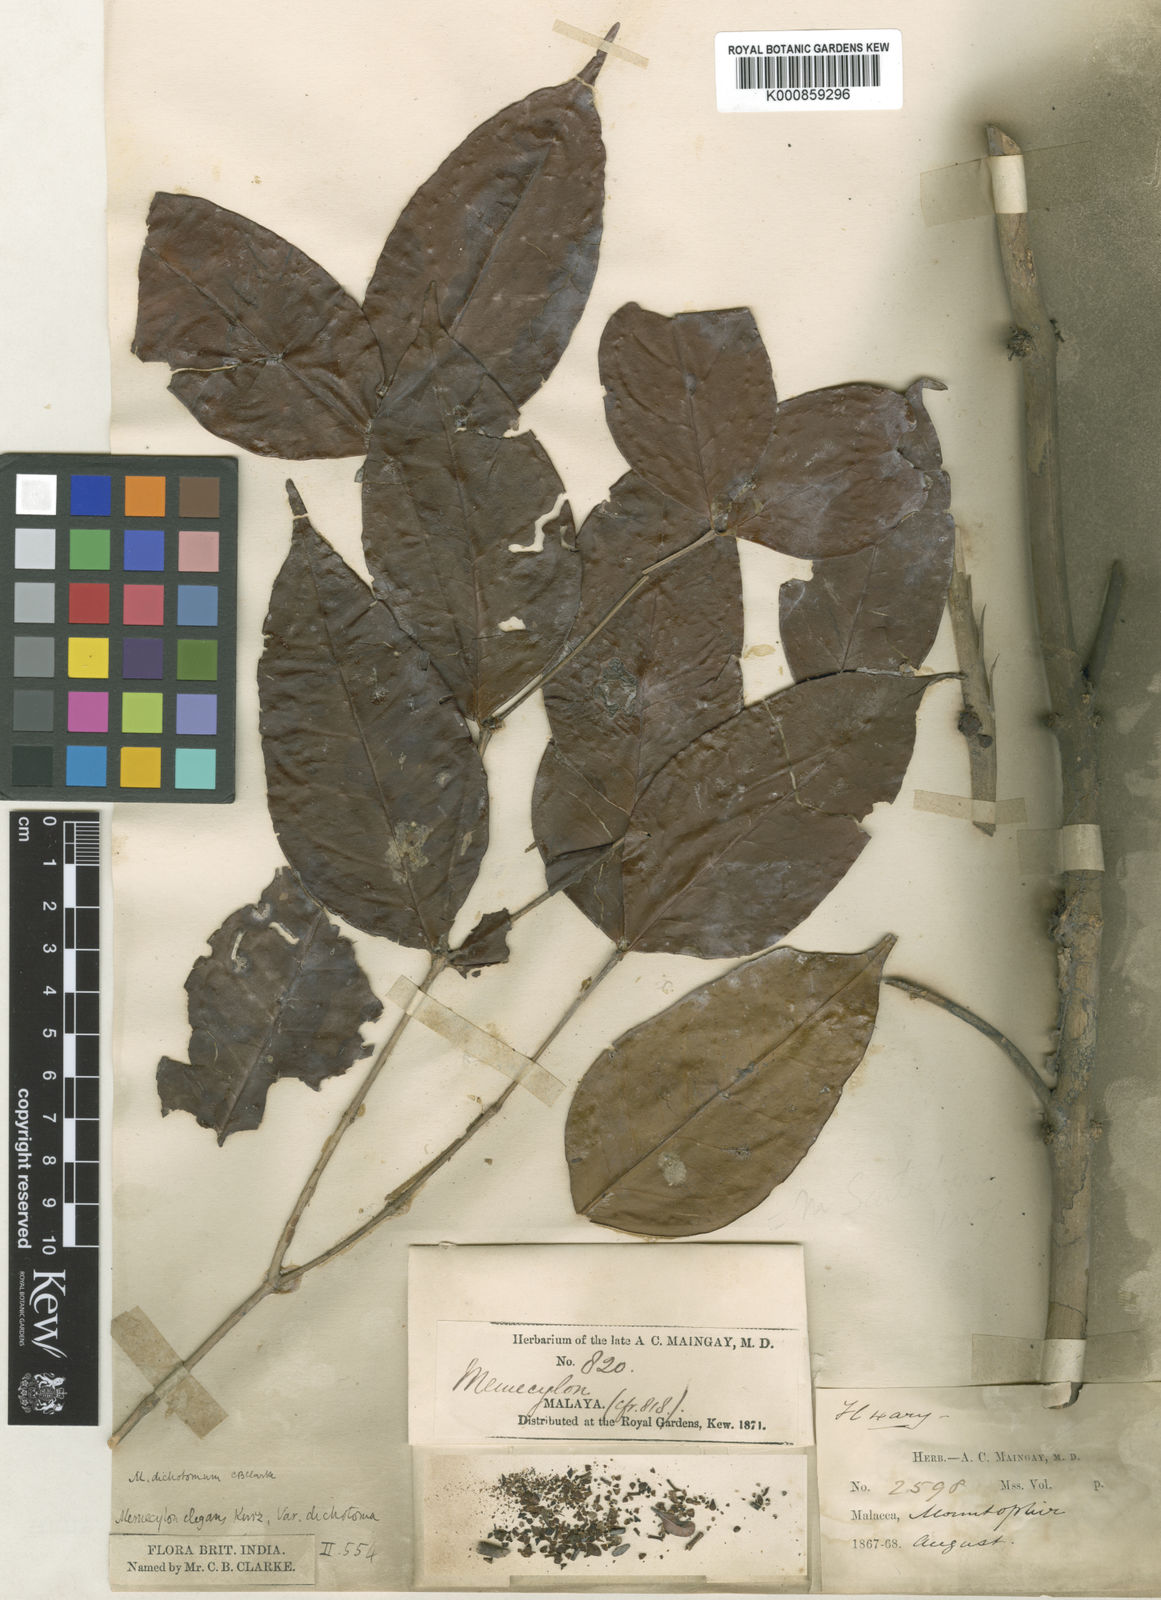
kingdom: Plantae
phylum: Tracheophyta
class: Magnoliopsida
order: Myrtales
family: Melastomataceae
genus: Memecylon
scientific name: Memecylon dichotomum
